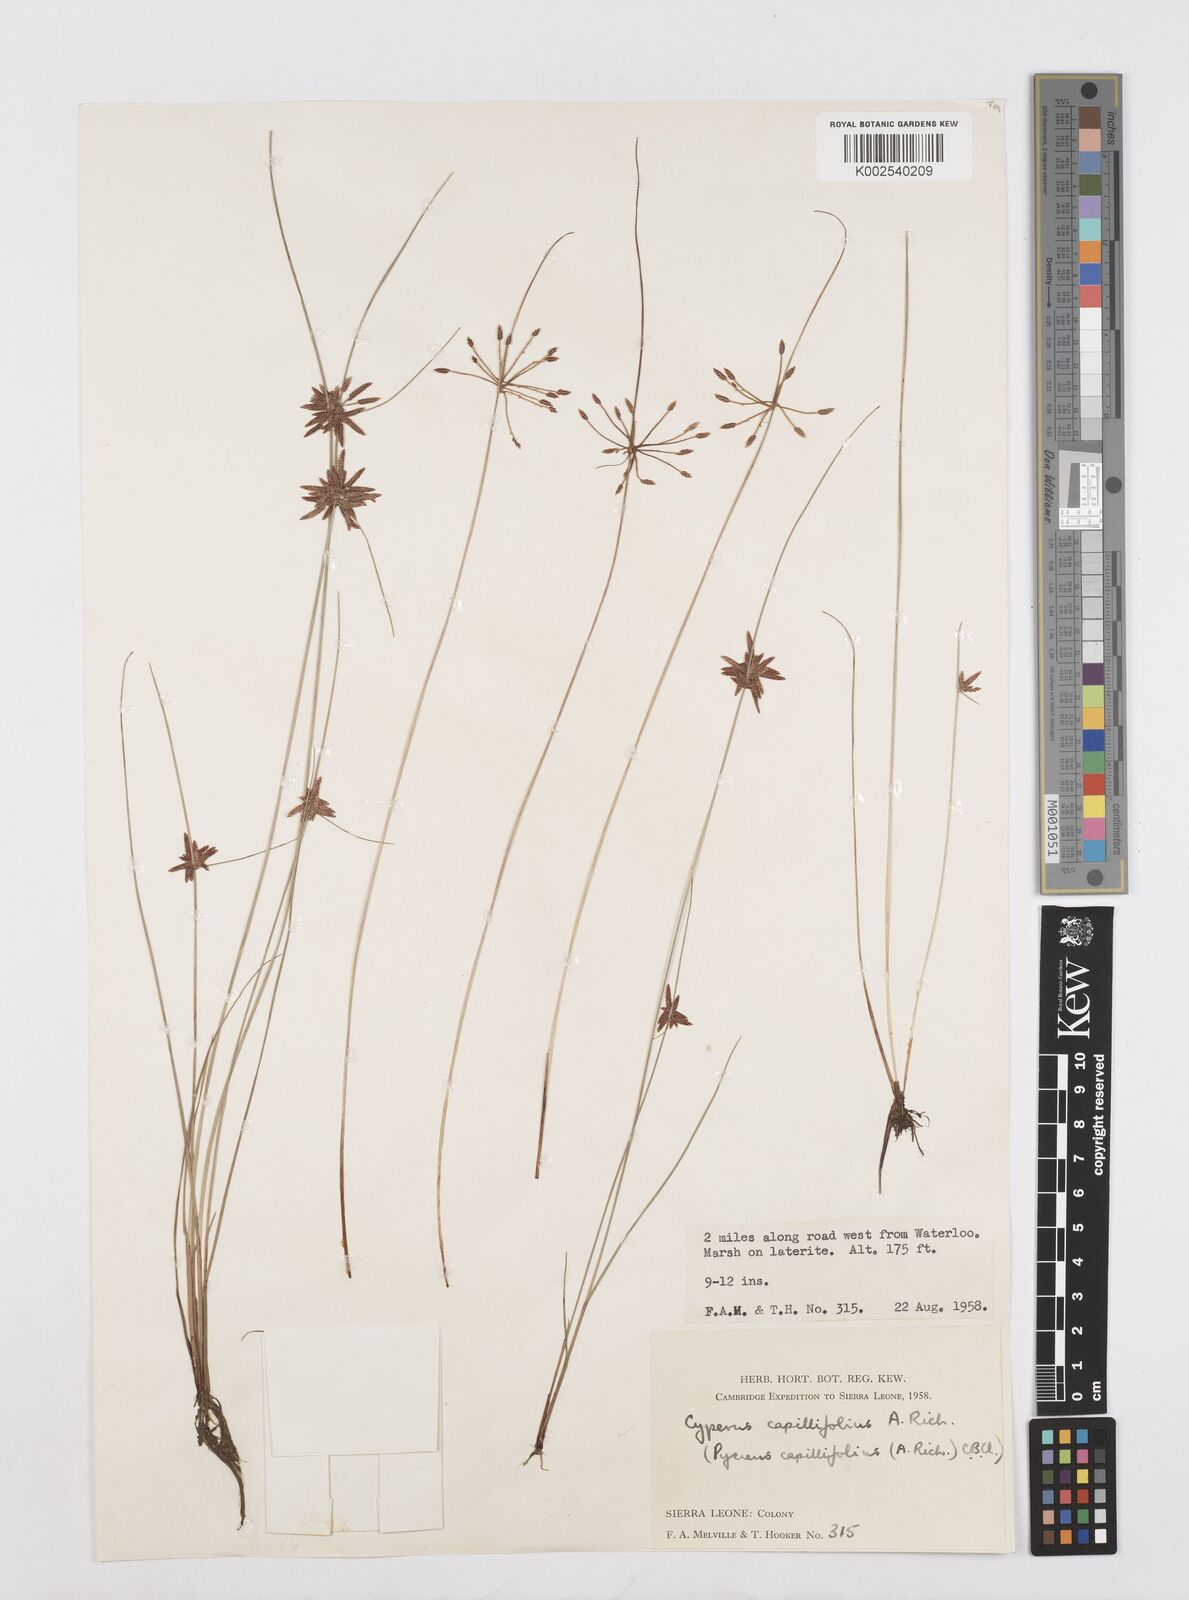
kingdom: Plantae
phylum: Tracheophyta
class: Liliopsida
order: Poales
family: Cyperaceae
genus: Cyperus
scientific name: Cyperus capillifolius
